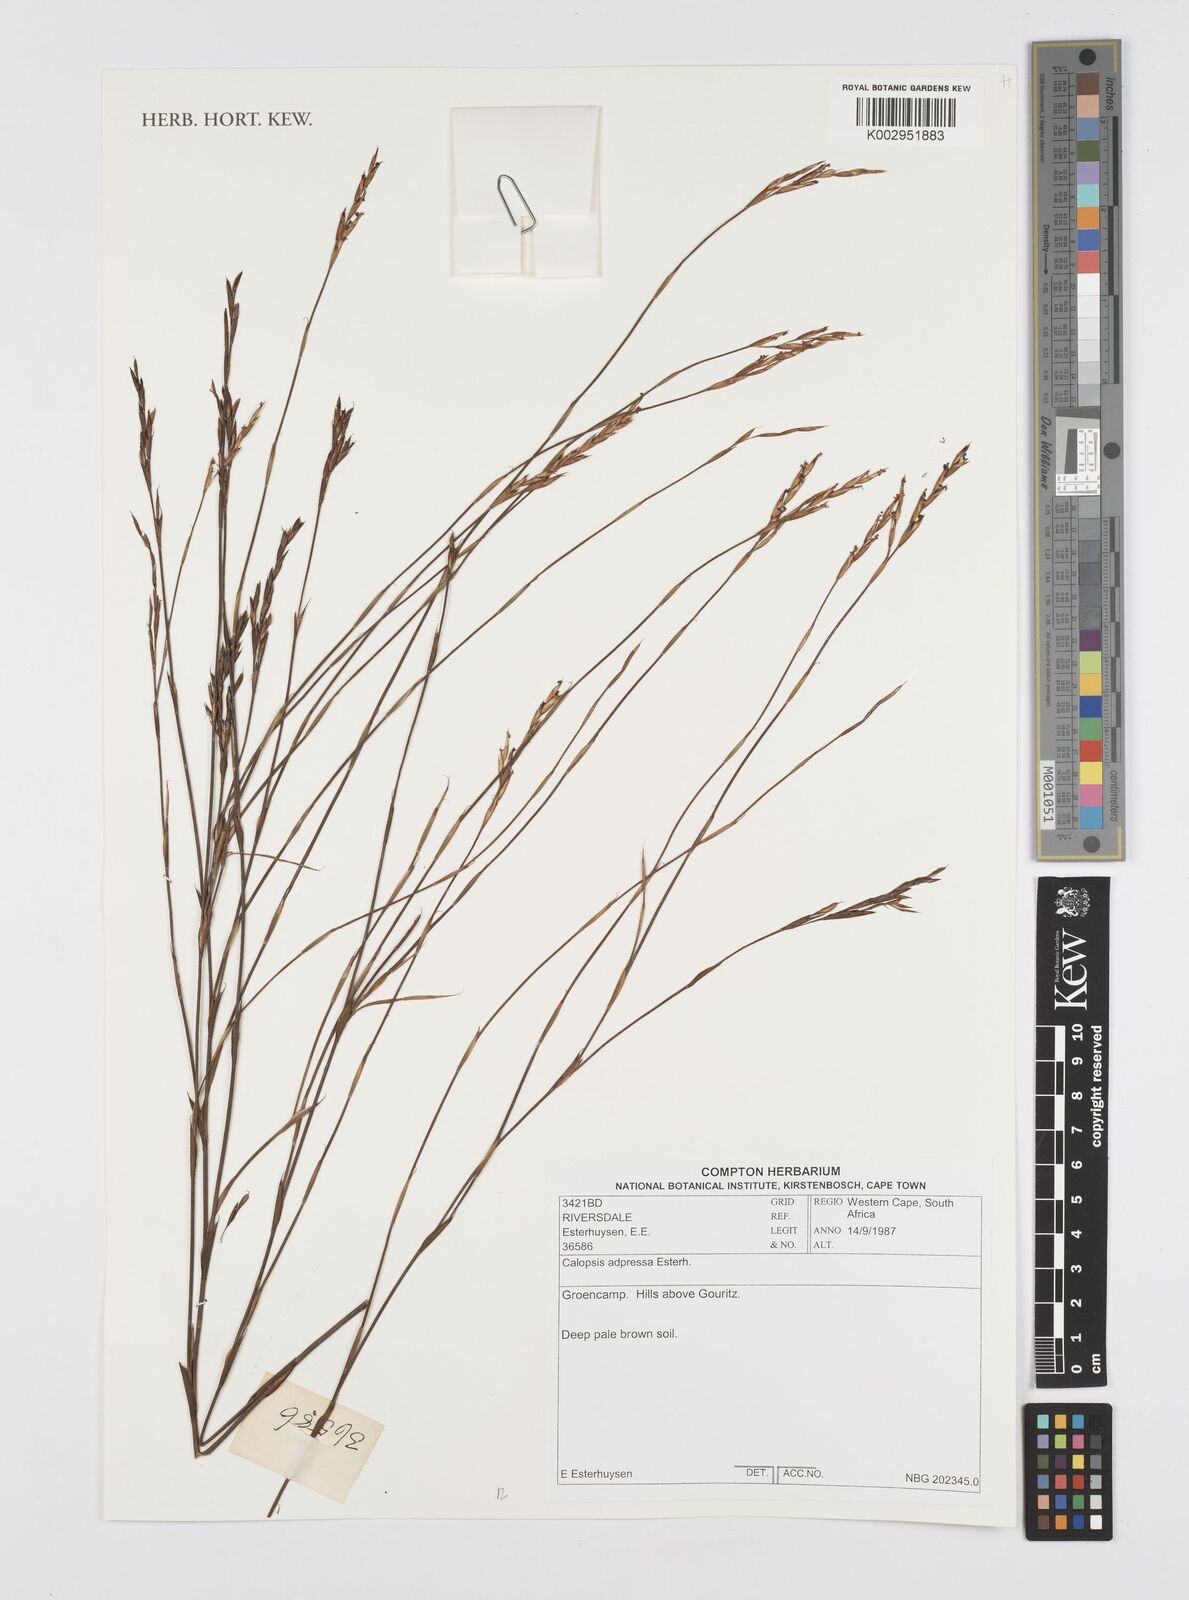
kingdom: Plantae
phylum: Tracheophyta
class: Liliopsida
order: Poales
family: Restionaceae
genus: Restio
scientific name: Restio adpressus
